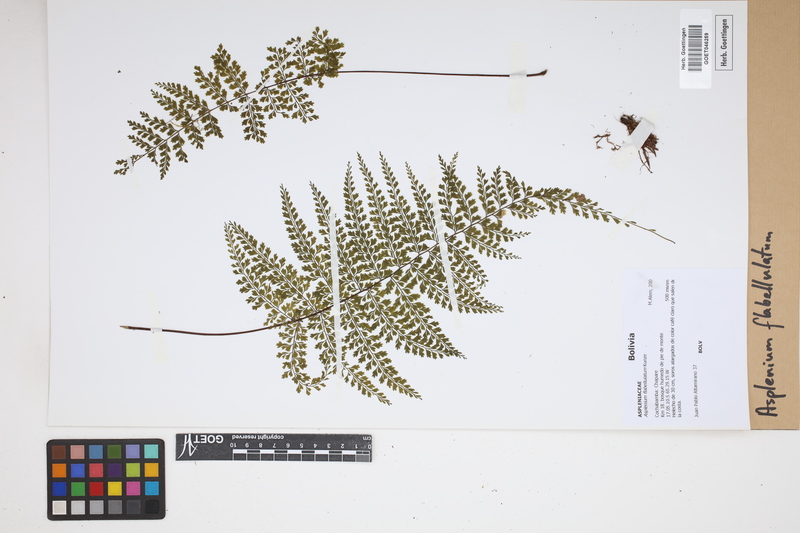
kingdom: Plantae
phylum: Tracheophyta
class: Polypodiopsida
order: Polypodiales
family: Aspleniaceae
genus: Asplenium
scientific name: Asplenium flabellulatum
